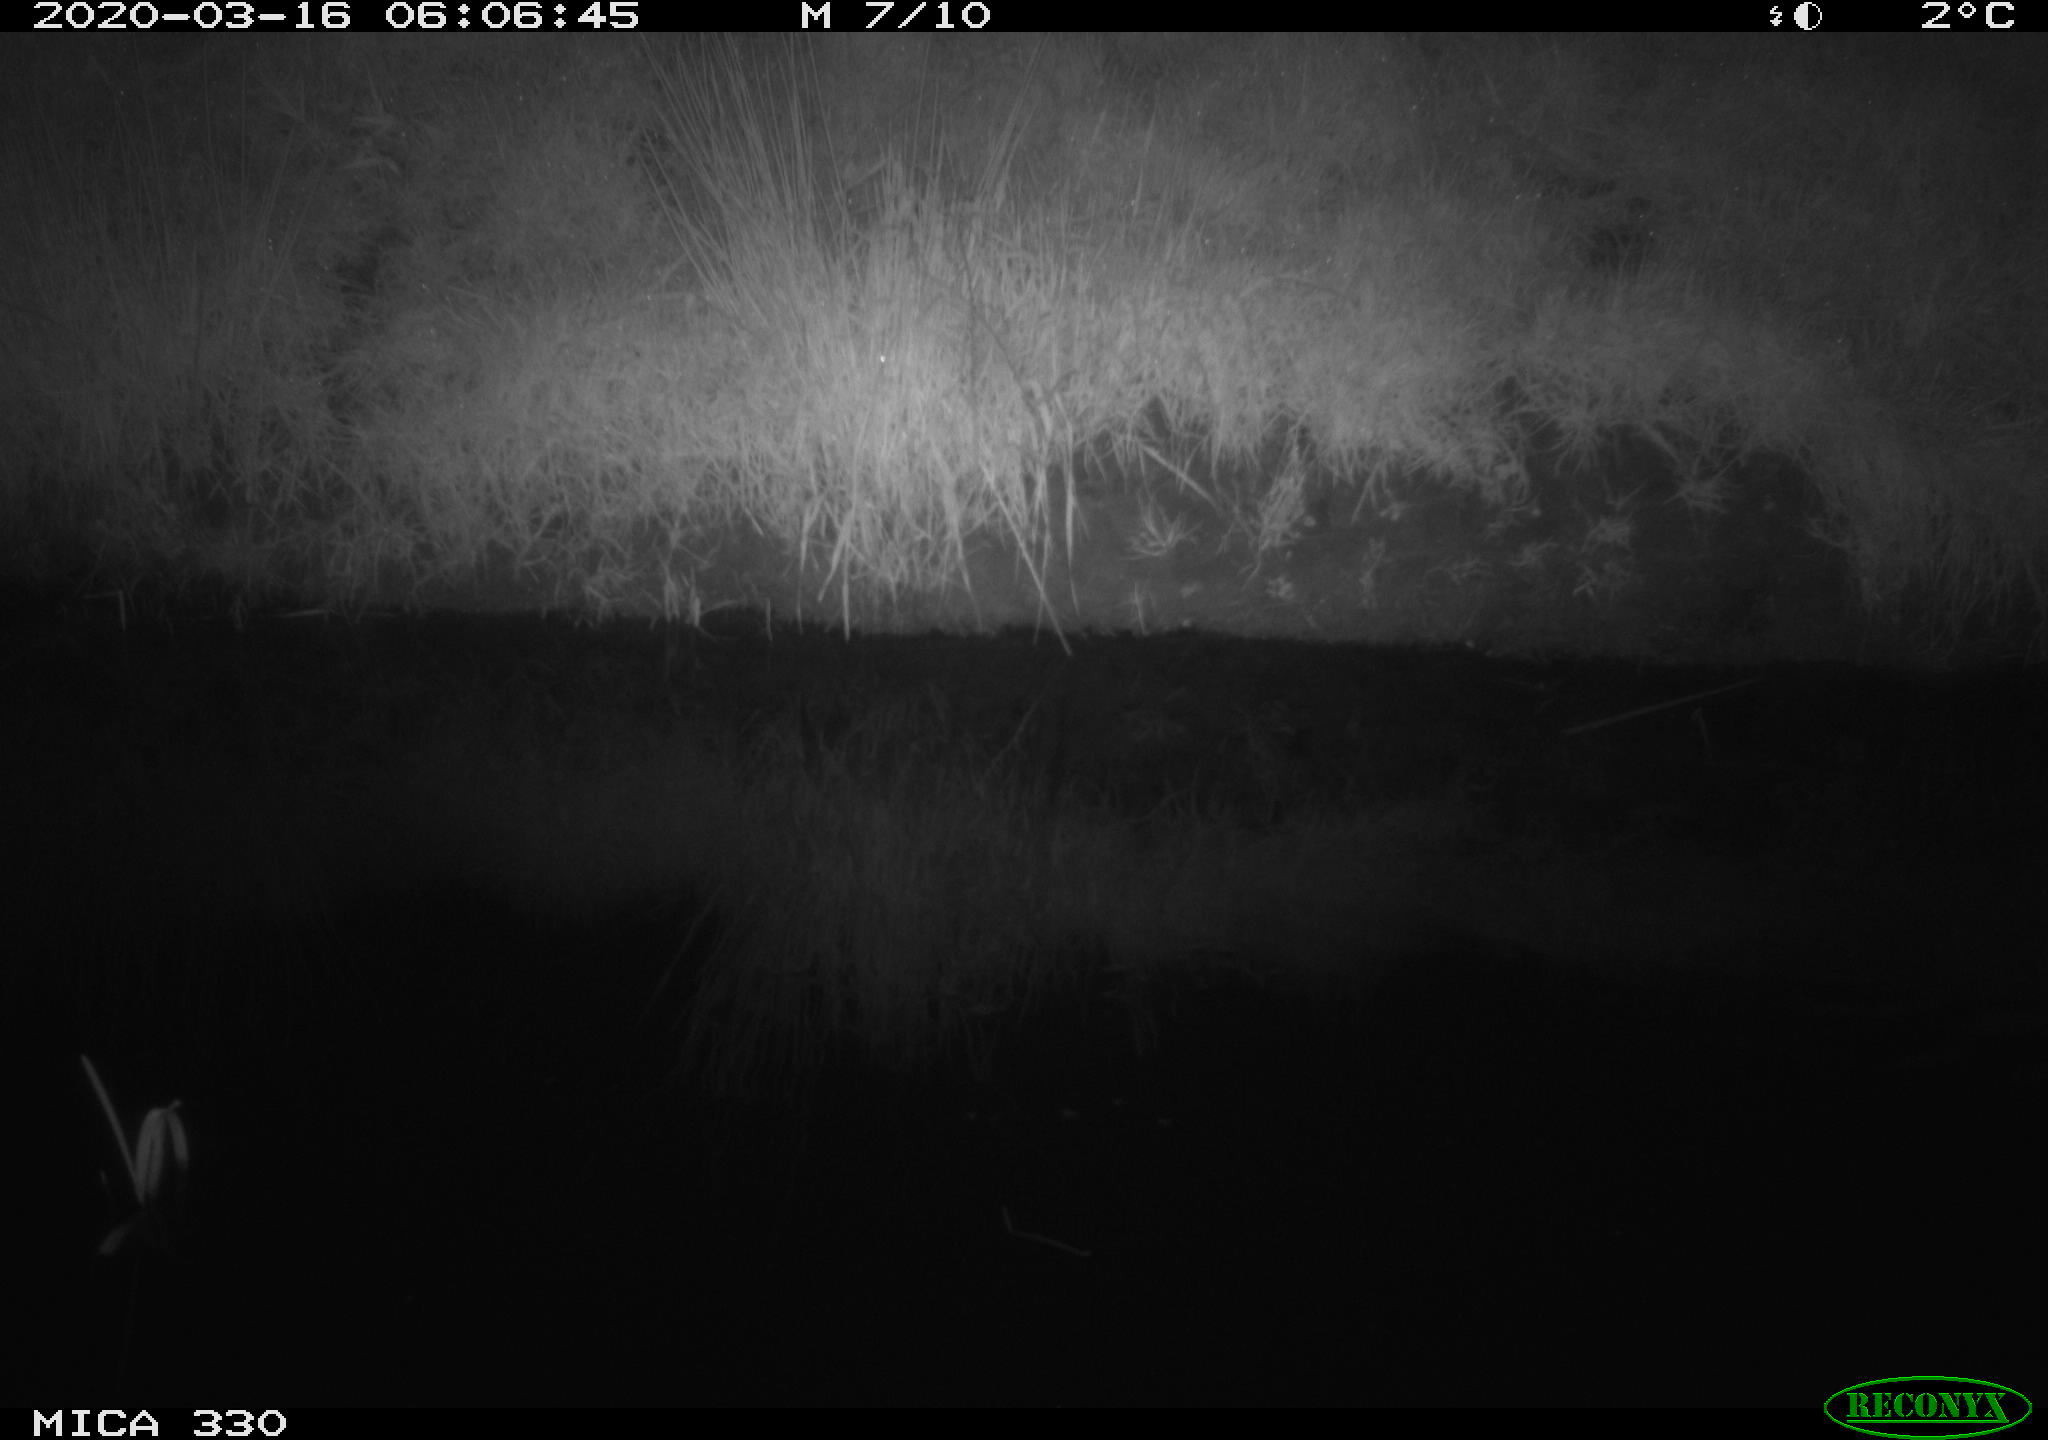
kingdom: Animalia
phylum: Chordata
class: Aves
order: Anseriformes
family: Anatidae
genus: Anas
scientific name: Anas platyrhynchos
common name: Mallard
